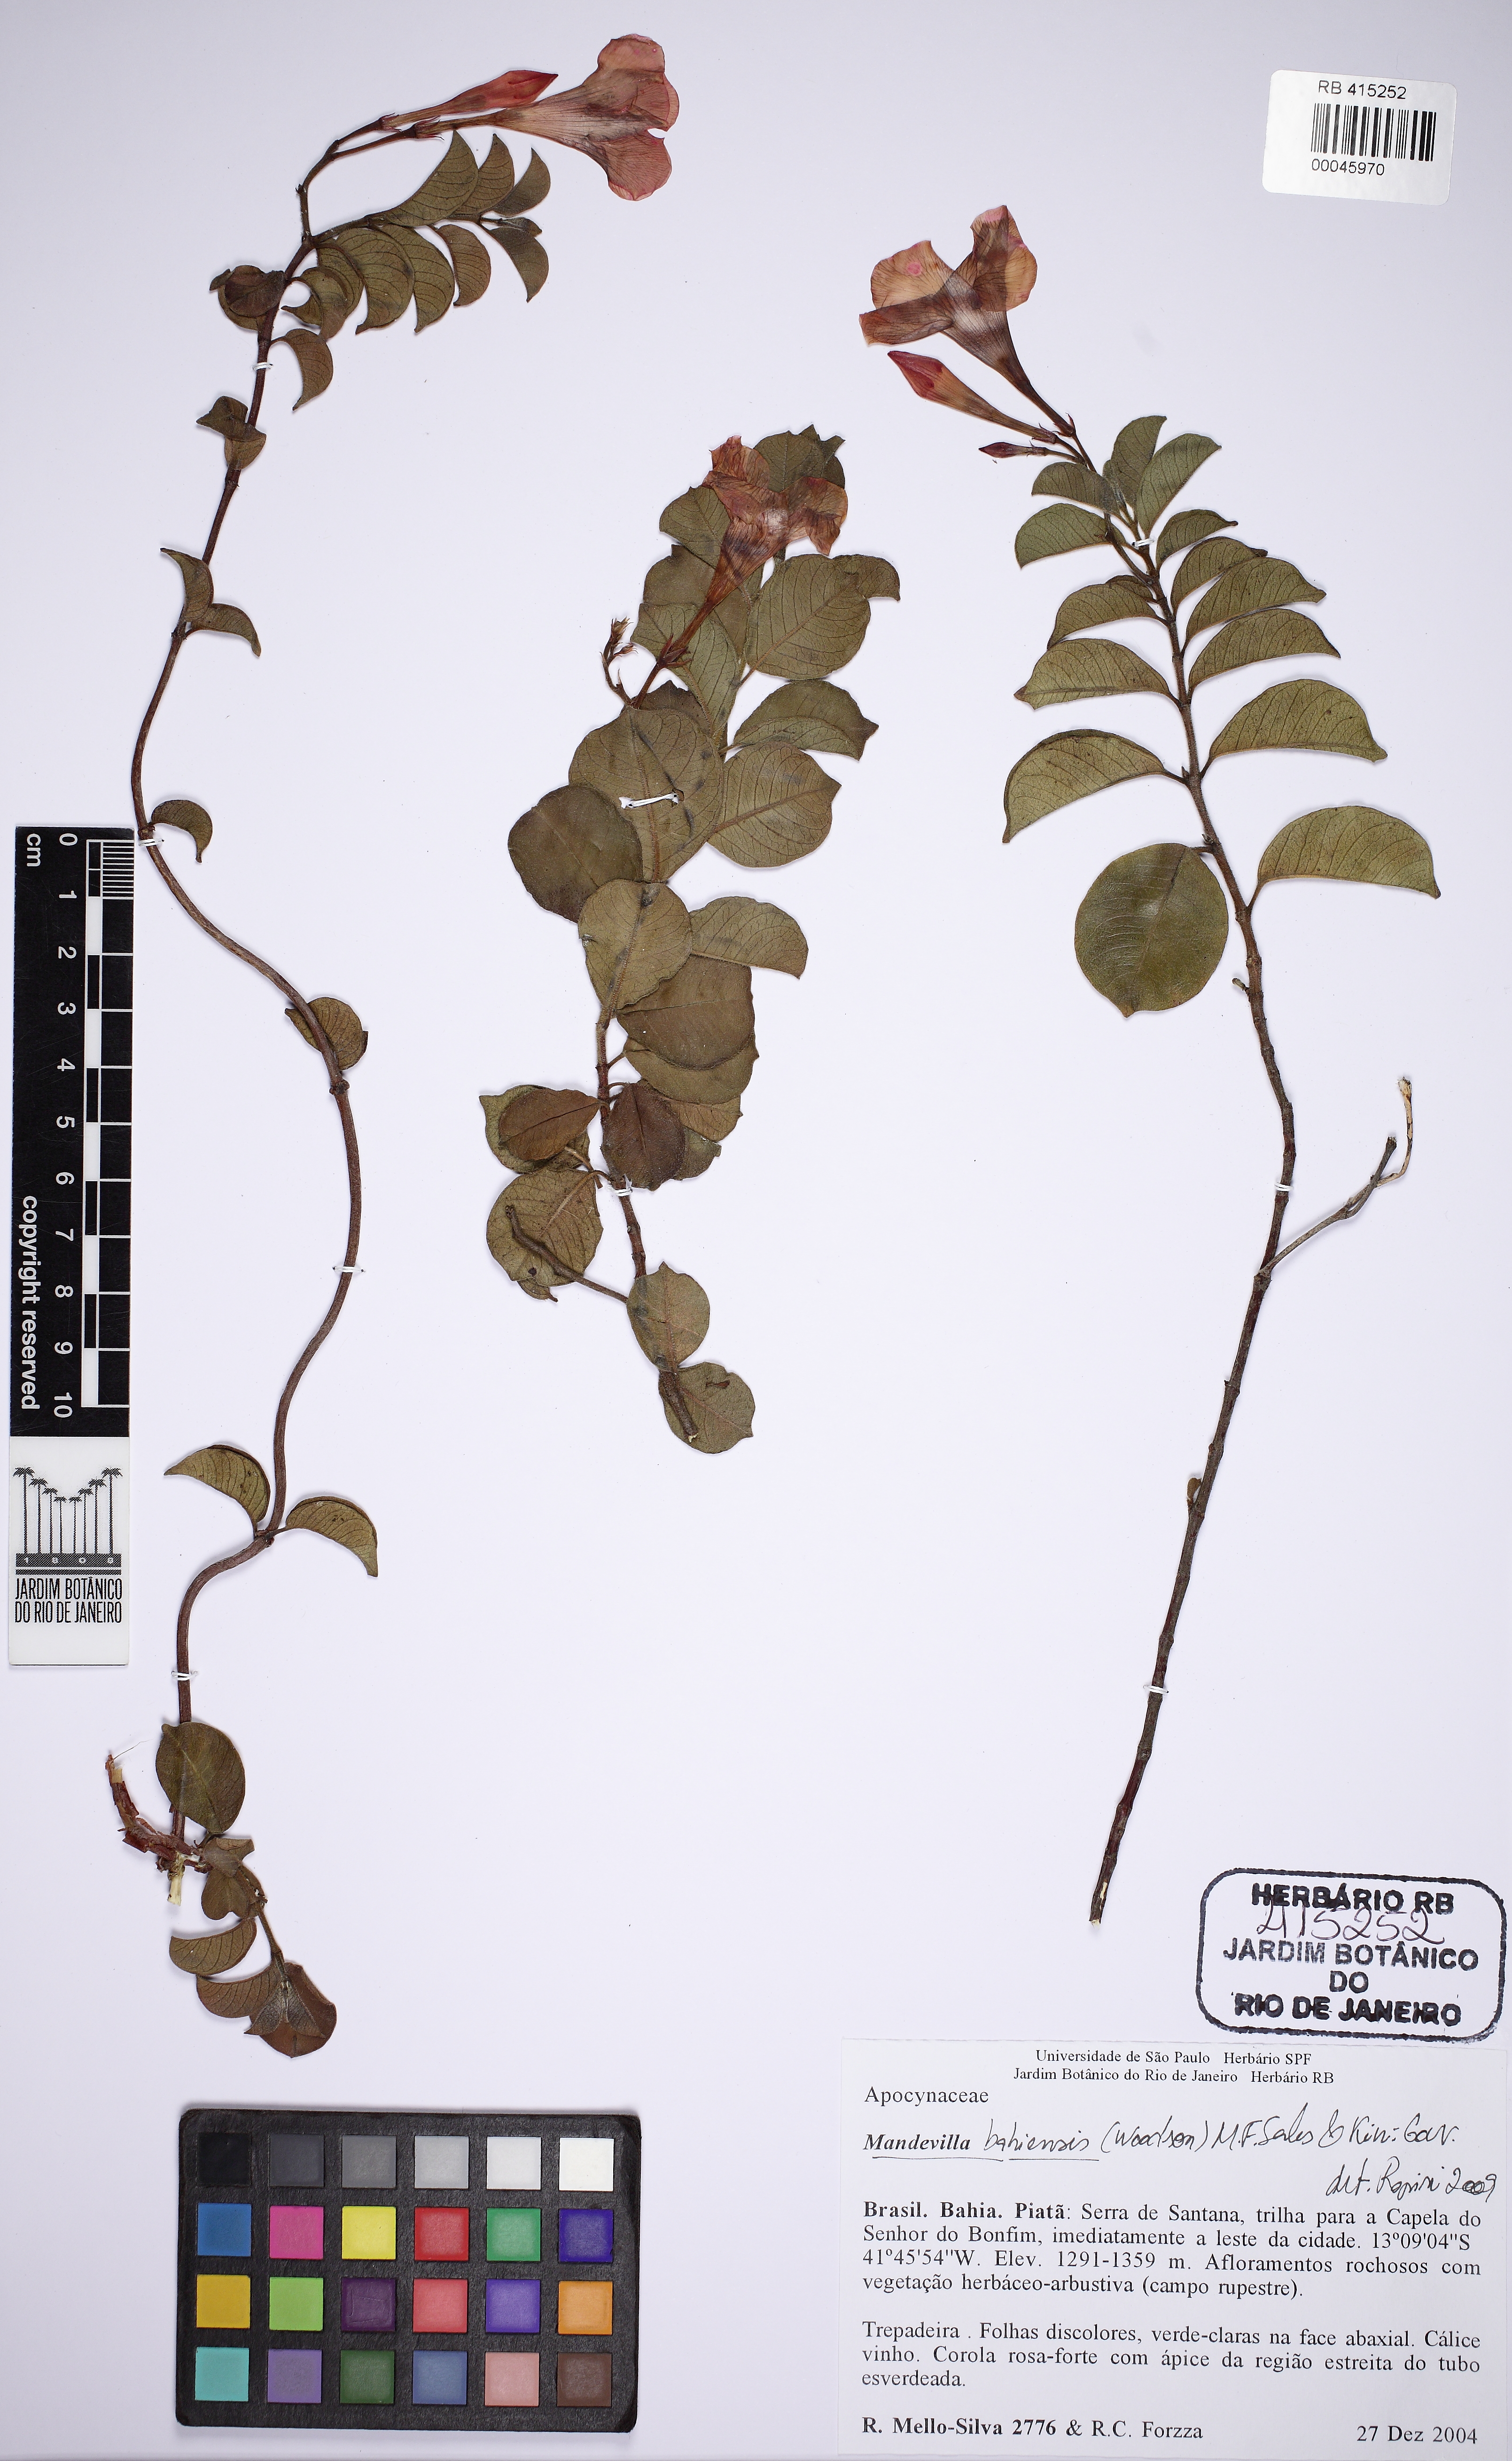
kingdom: Plantae
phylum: Tracheophyta
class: Magnoliopsida
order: Gentianales
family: Apocynaceae
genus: Mandevilla
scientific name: Mandevilla bahiensis
